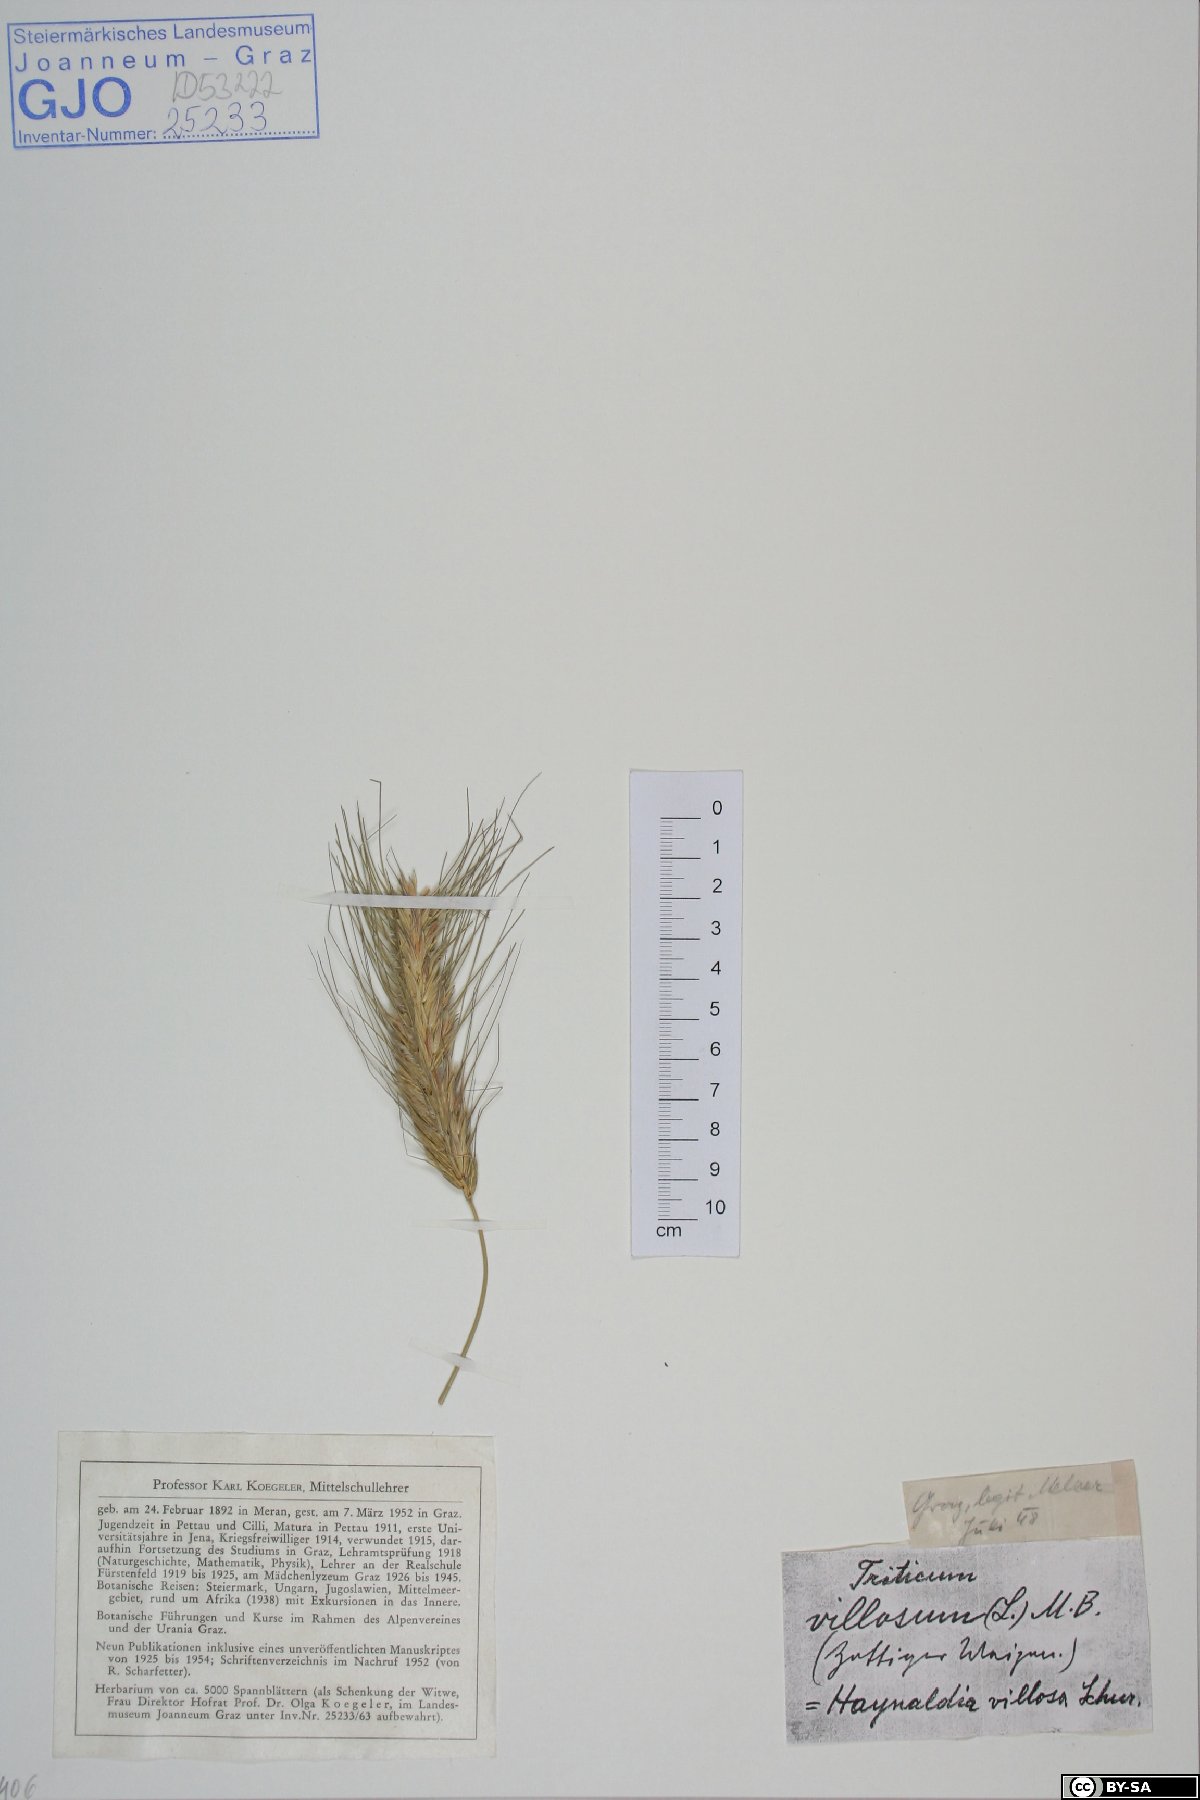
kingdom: Plantae
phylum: Tracheophyta
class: Liliopsida
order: Poales
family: Poaceae
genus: Dasypyrum
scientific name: Dasypyrum villosum
